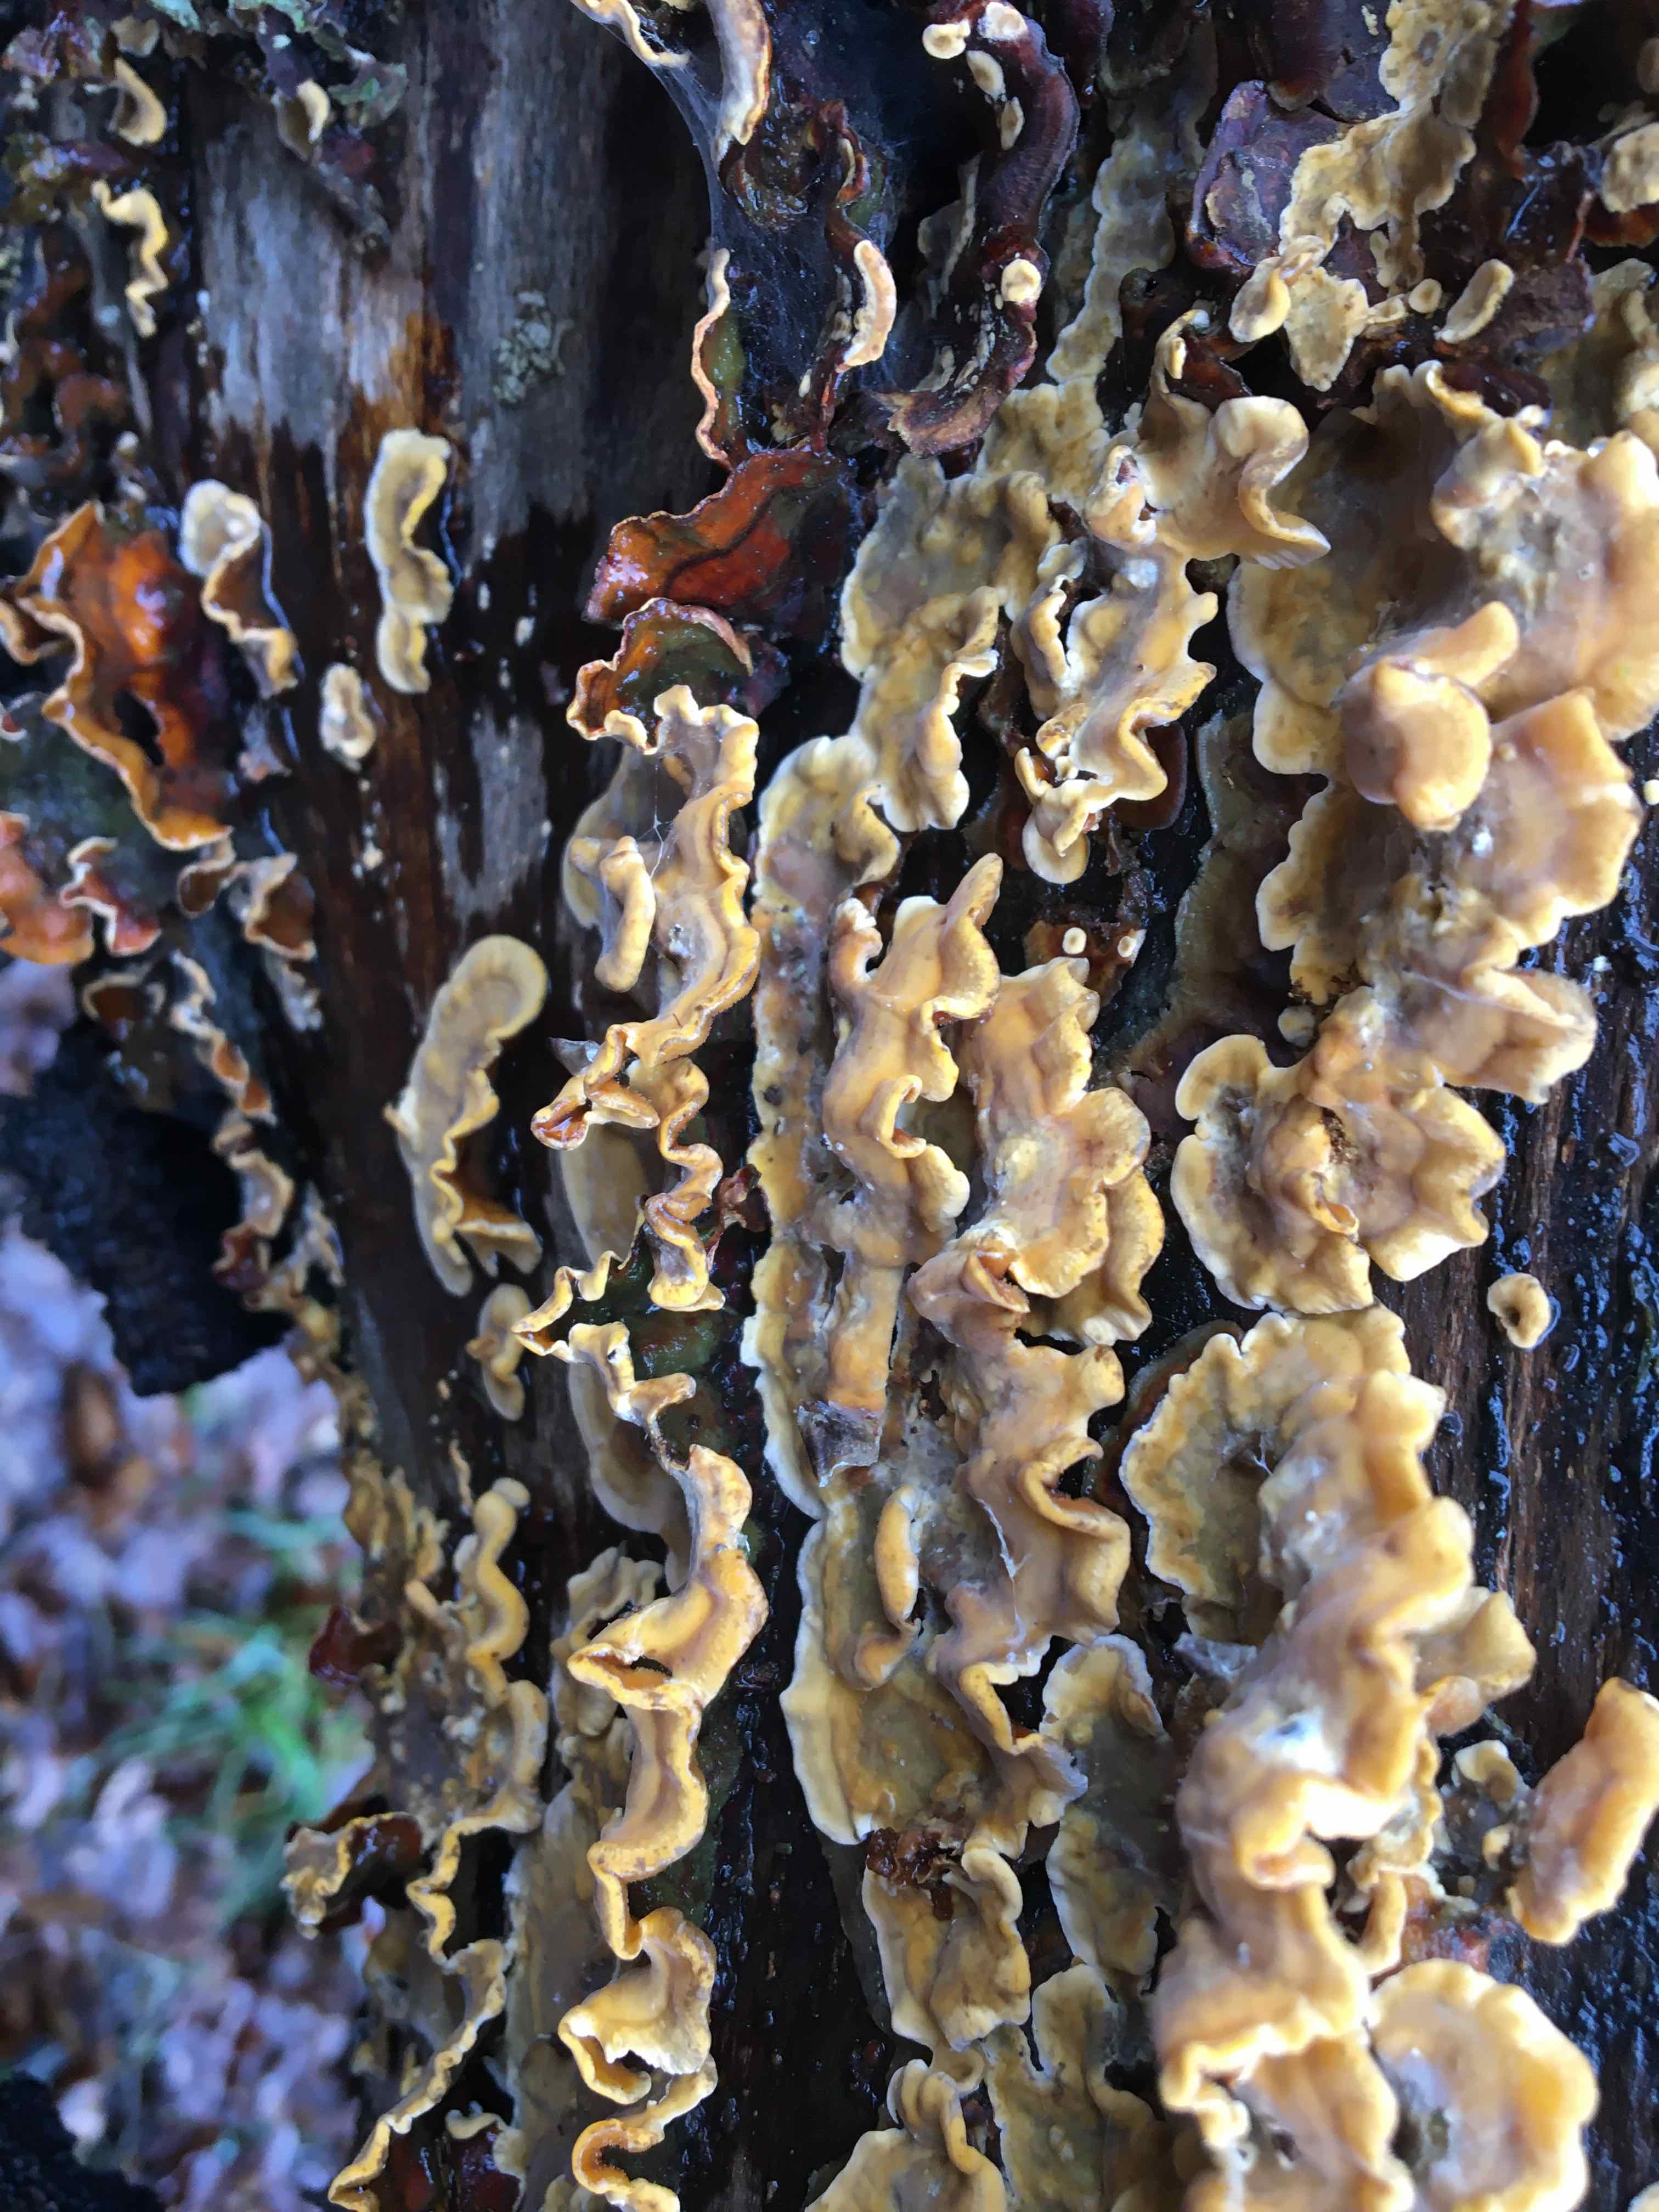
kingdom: Fungi
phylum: Basidiomycota
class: Agaricomycetes
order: Russulales
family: Stereaceae
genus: Stereum
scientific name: Stereum hirsutum
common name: håret lædersvamp
